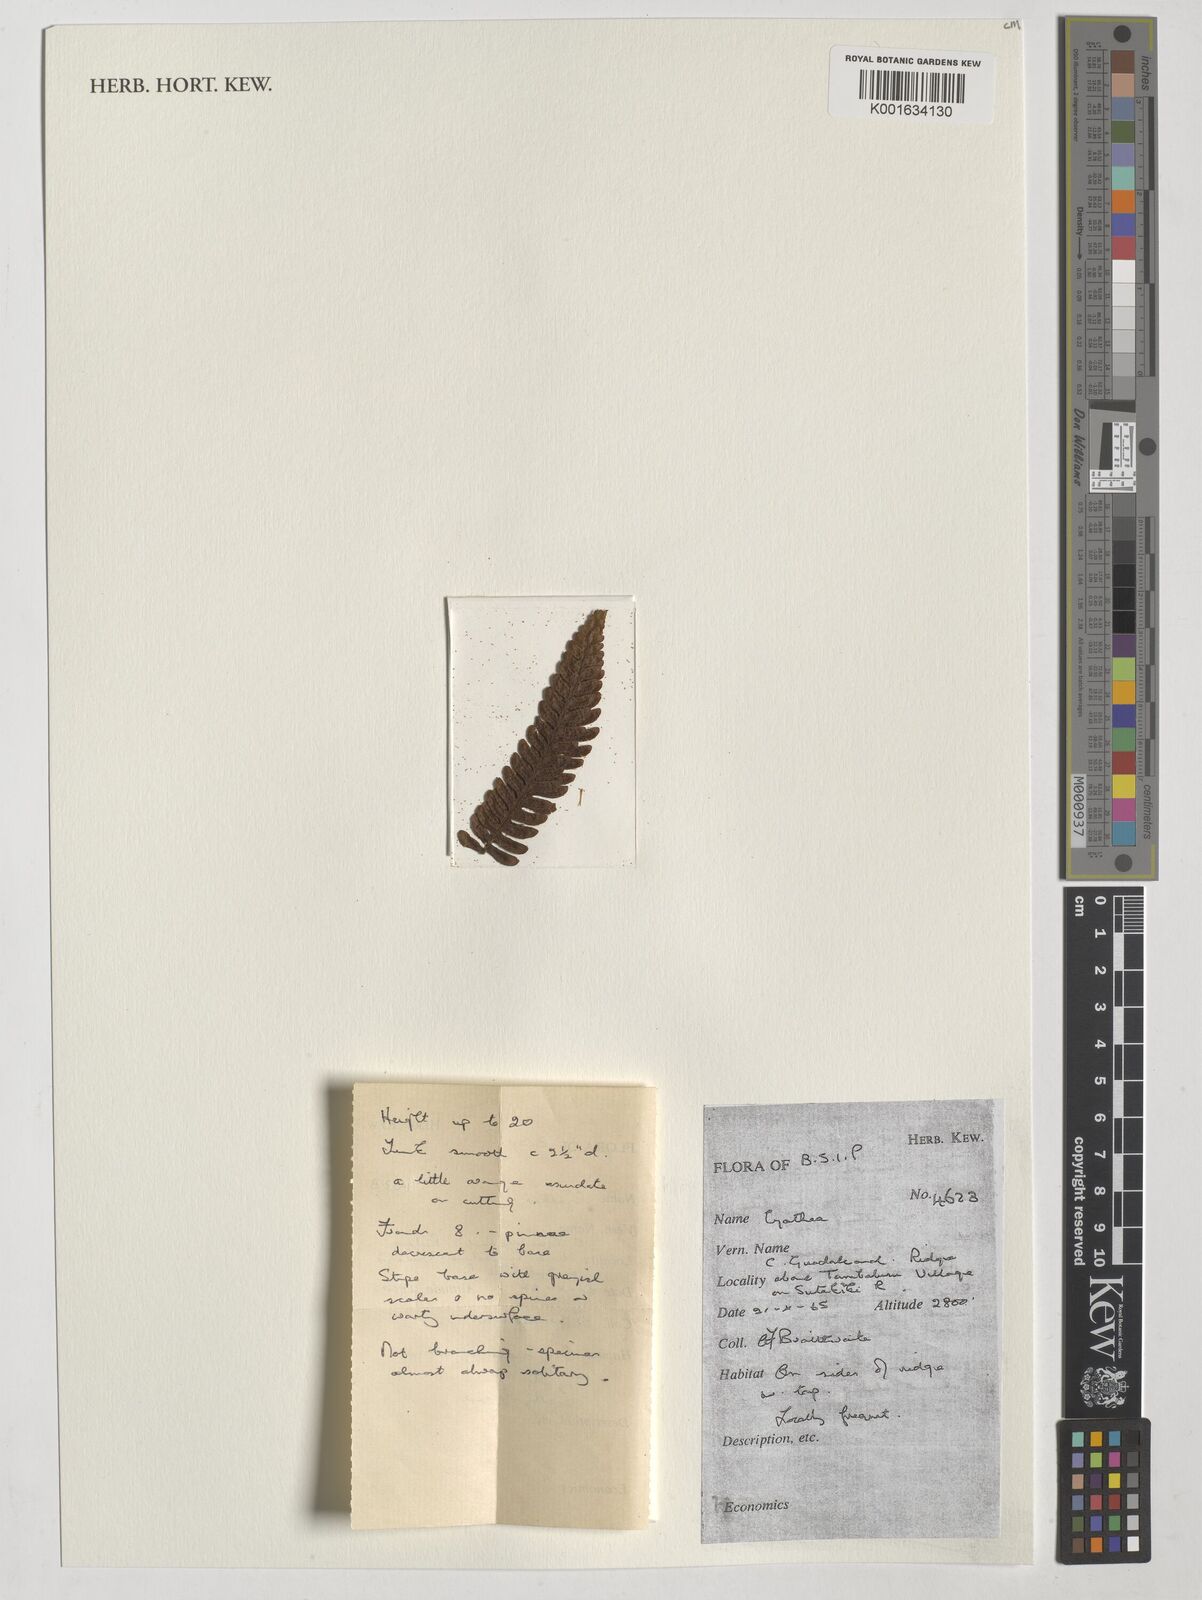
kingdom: Plantae
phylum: Tracheophyta
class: Polypodiopsida
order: Cyatheales
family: Cyatheaceae
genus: Cyathea
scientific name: Cyathea
